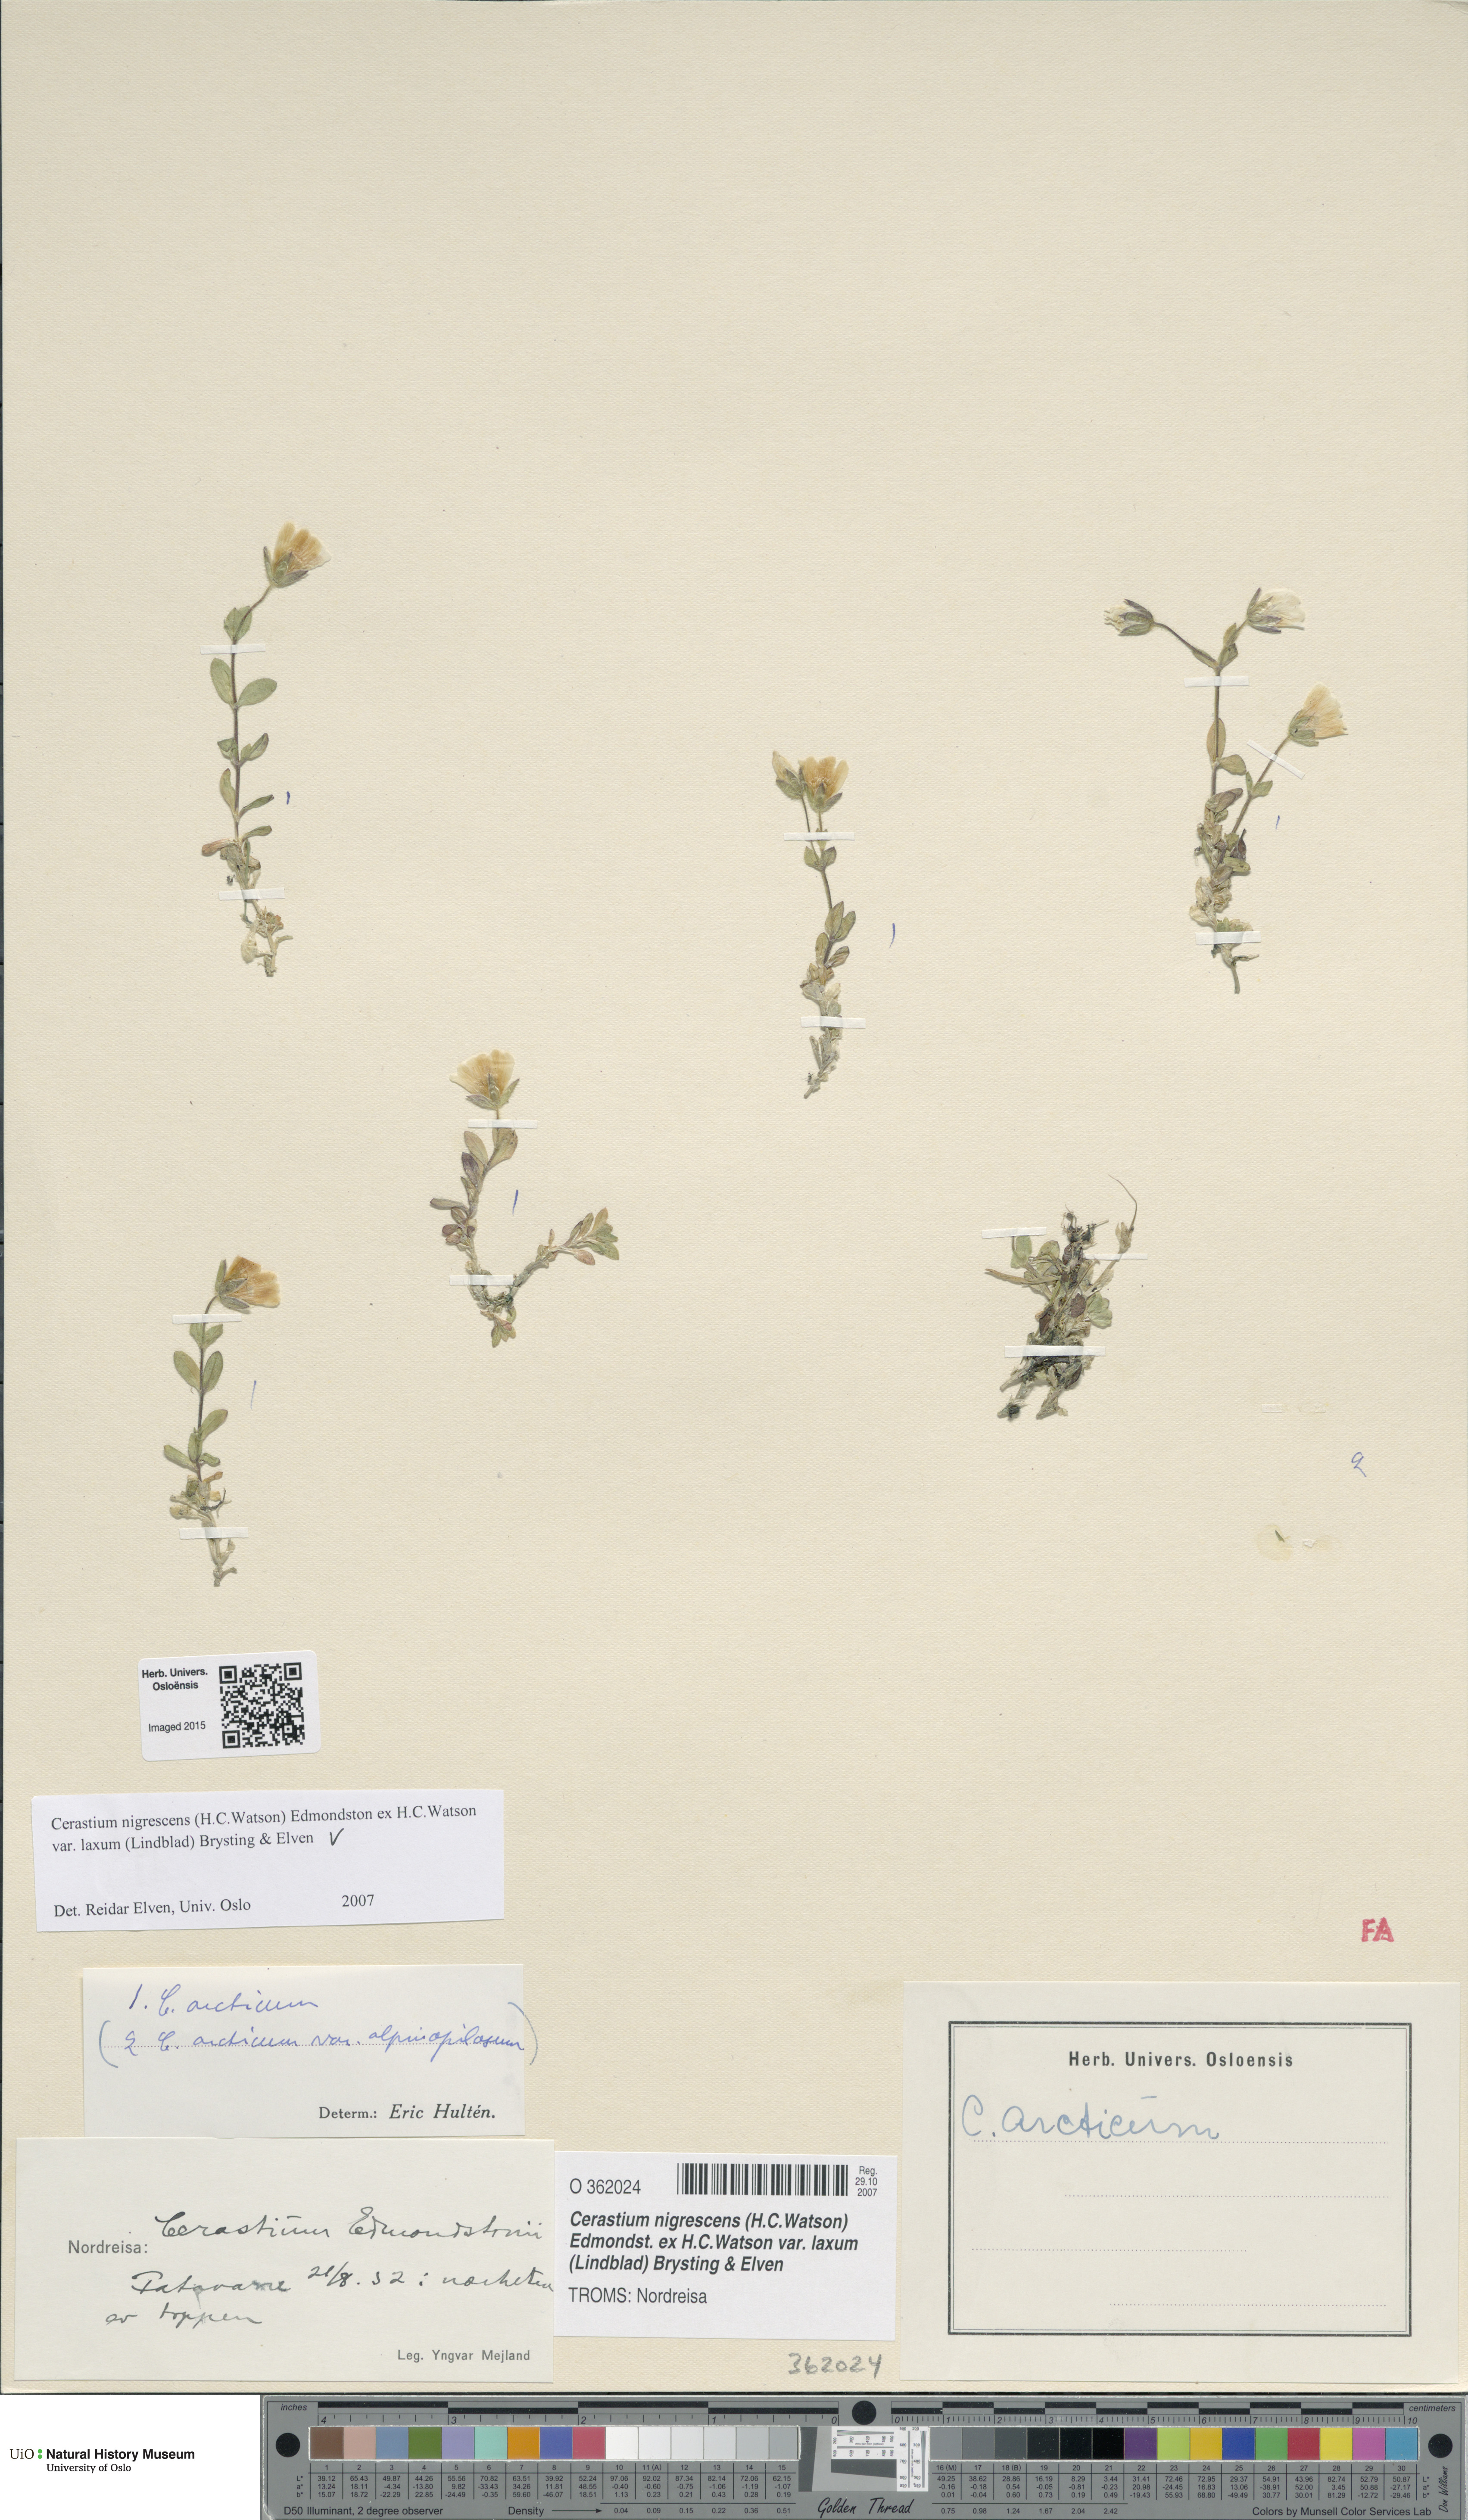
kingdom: Plantae
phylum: Tracheophyta
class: Magnoliopsida
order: Caryophyllales
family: Caryophyllaceae
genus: Cerastium
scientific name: Cerastium nigrescens
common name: Shetland mouse-ear
